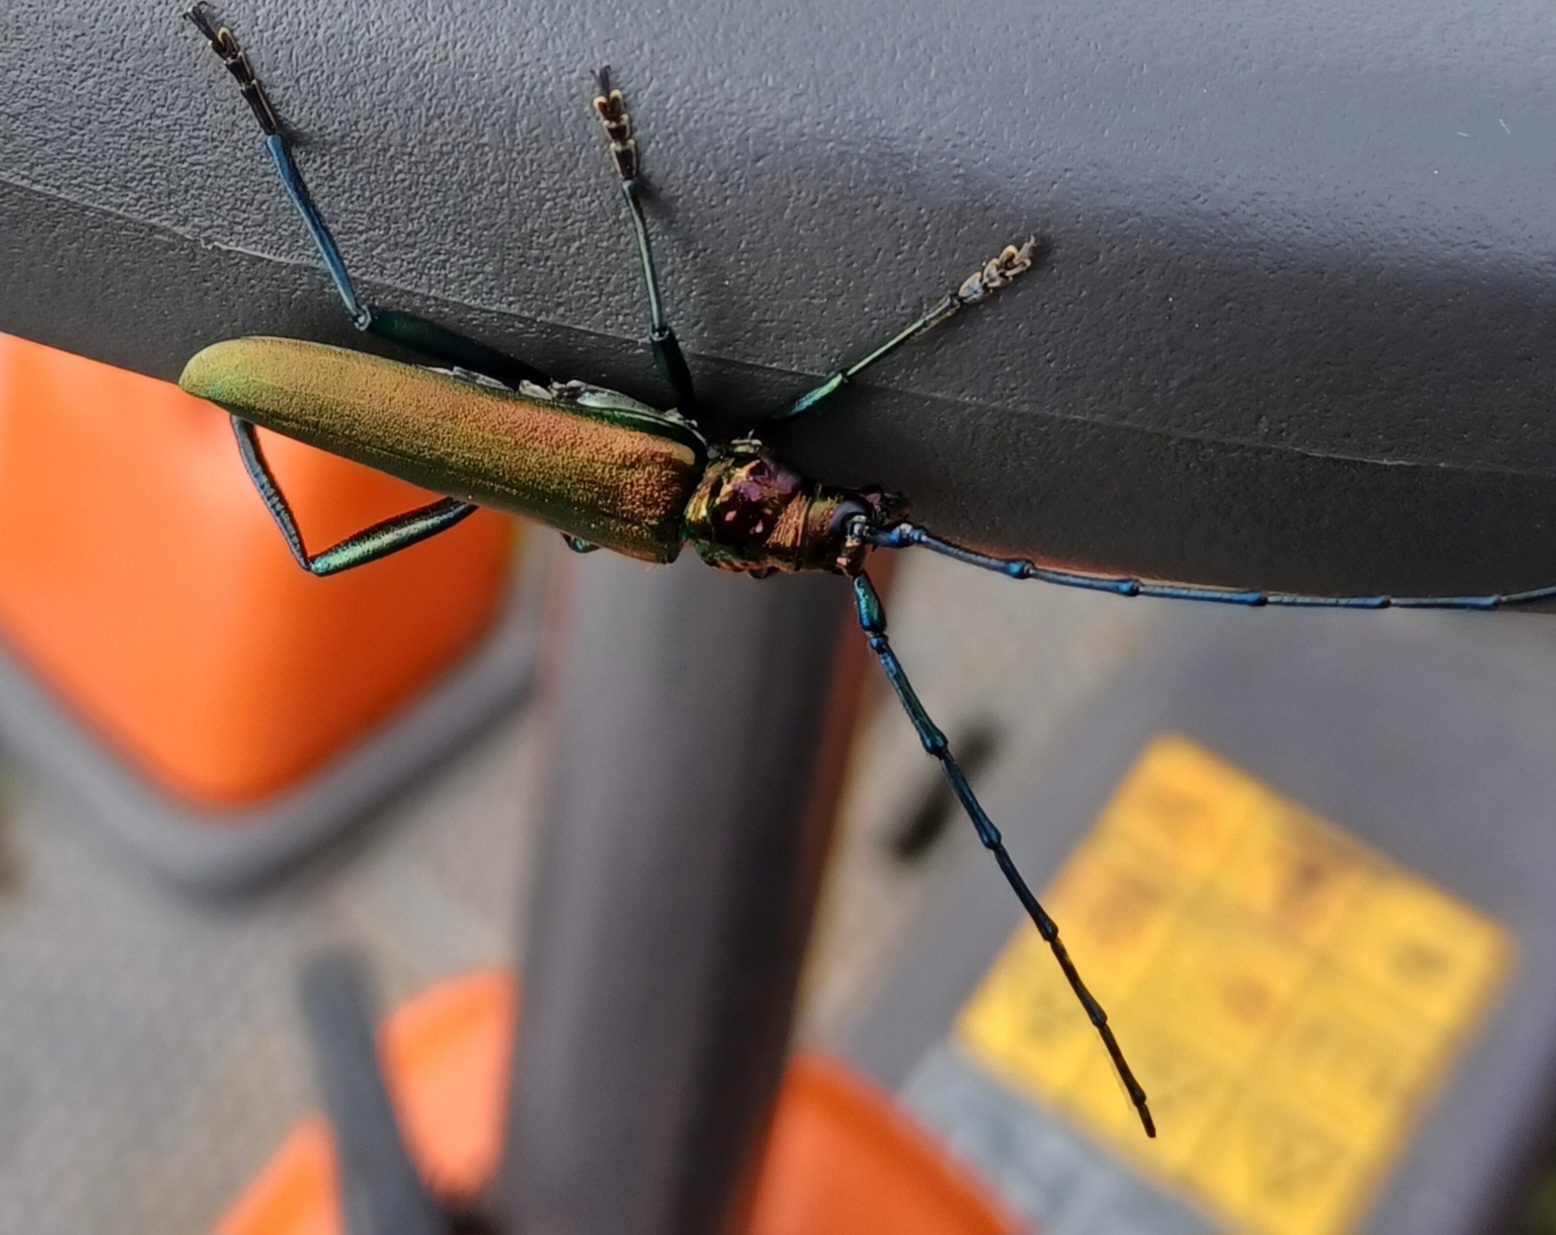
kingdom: Animalia
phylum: Arthropoda
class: Insecta
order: Coleoptera
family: Cerambycidae
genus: Aromia
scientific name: Aromia moschata
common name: Moskusbuk
